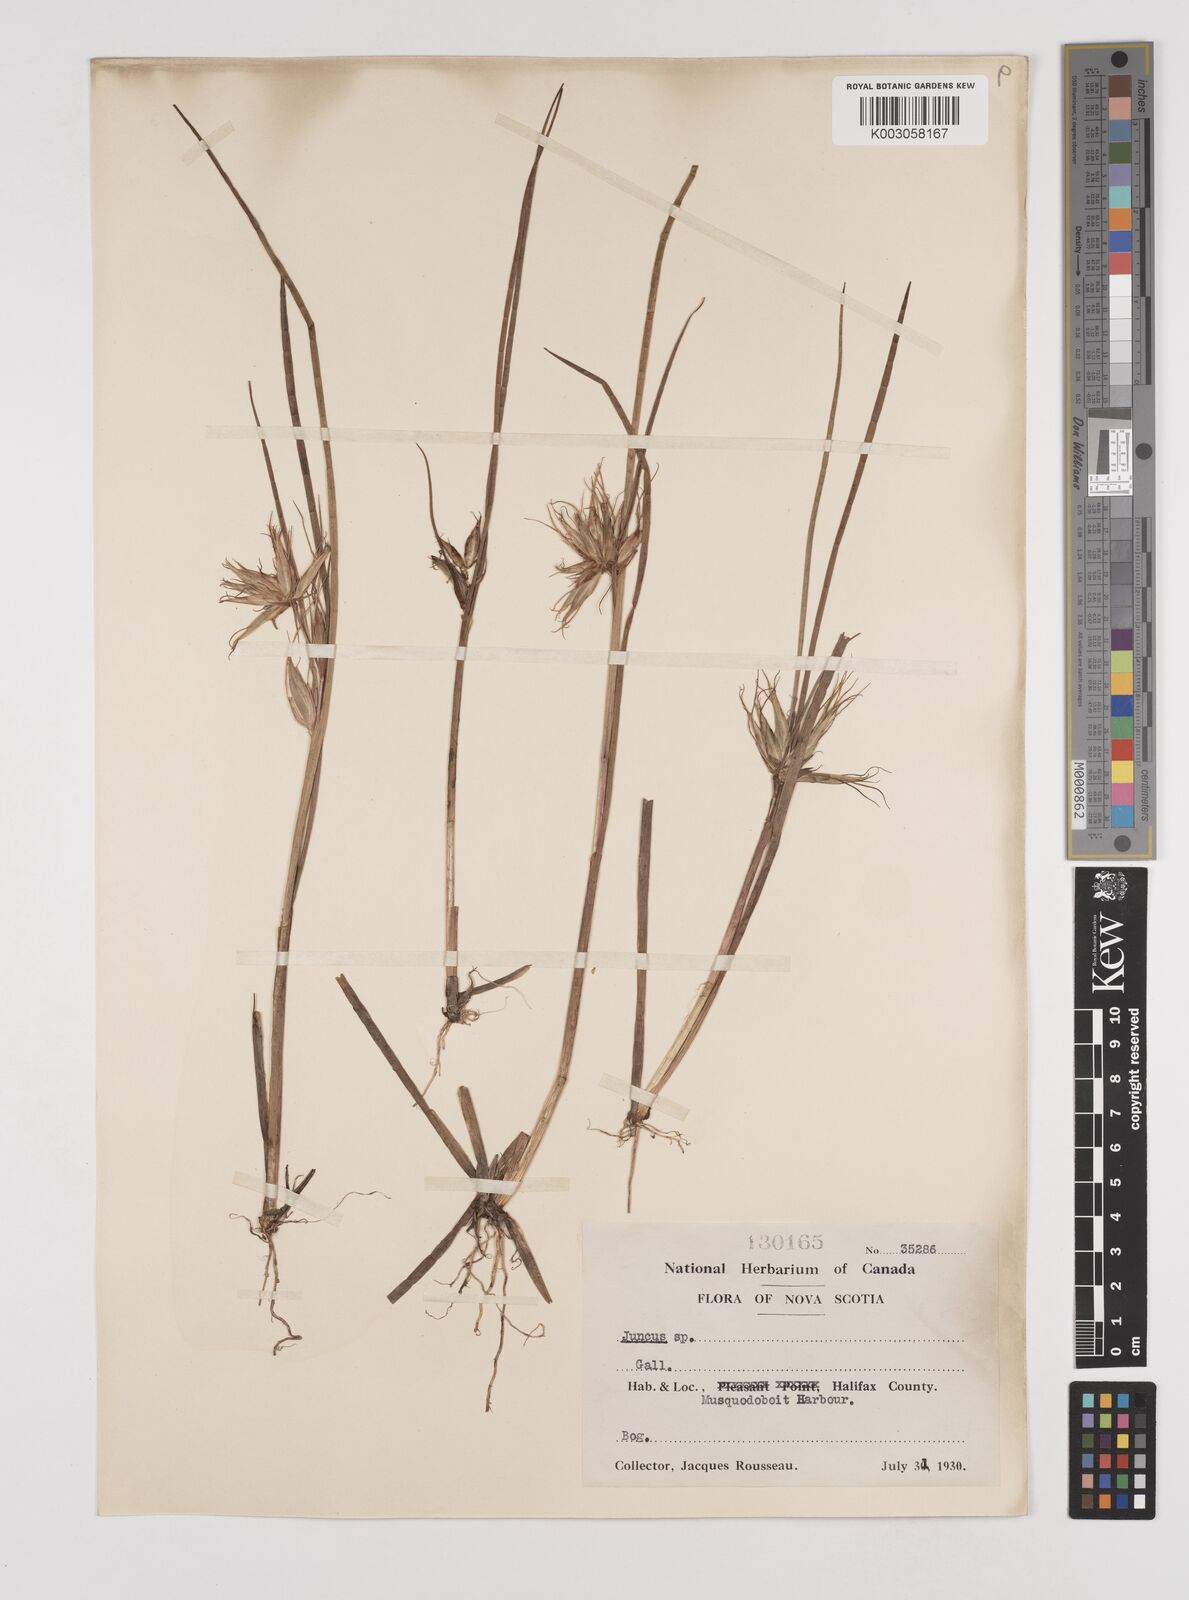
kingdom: Plantae
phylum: Tracheophyta
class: Liliopsida
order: Poales
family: Juncaceae
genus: Juncus
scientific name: Juncus
